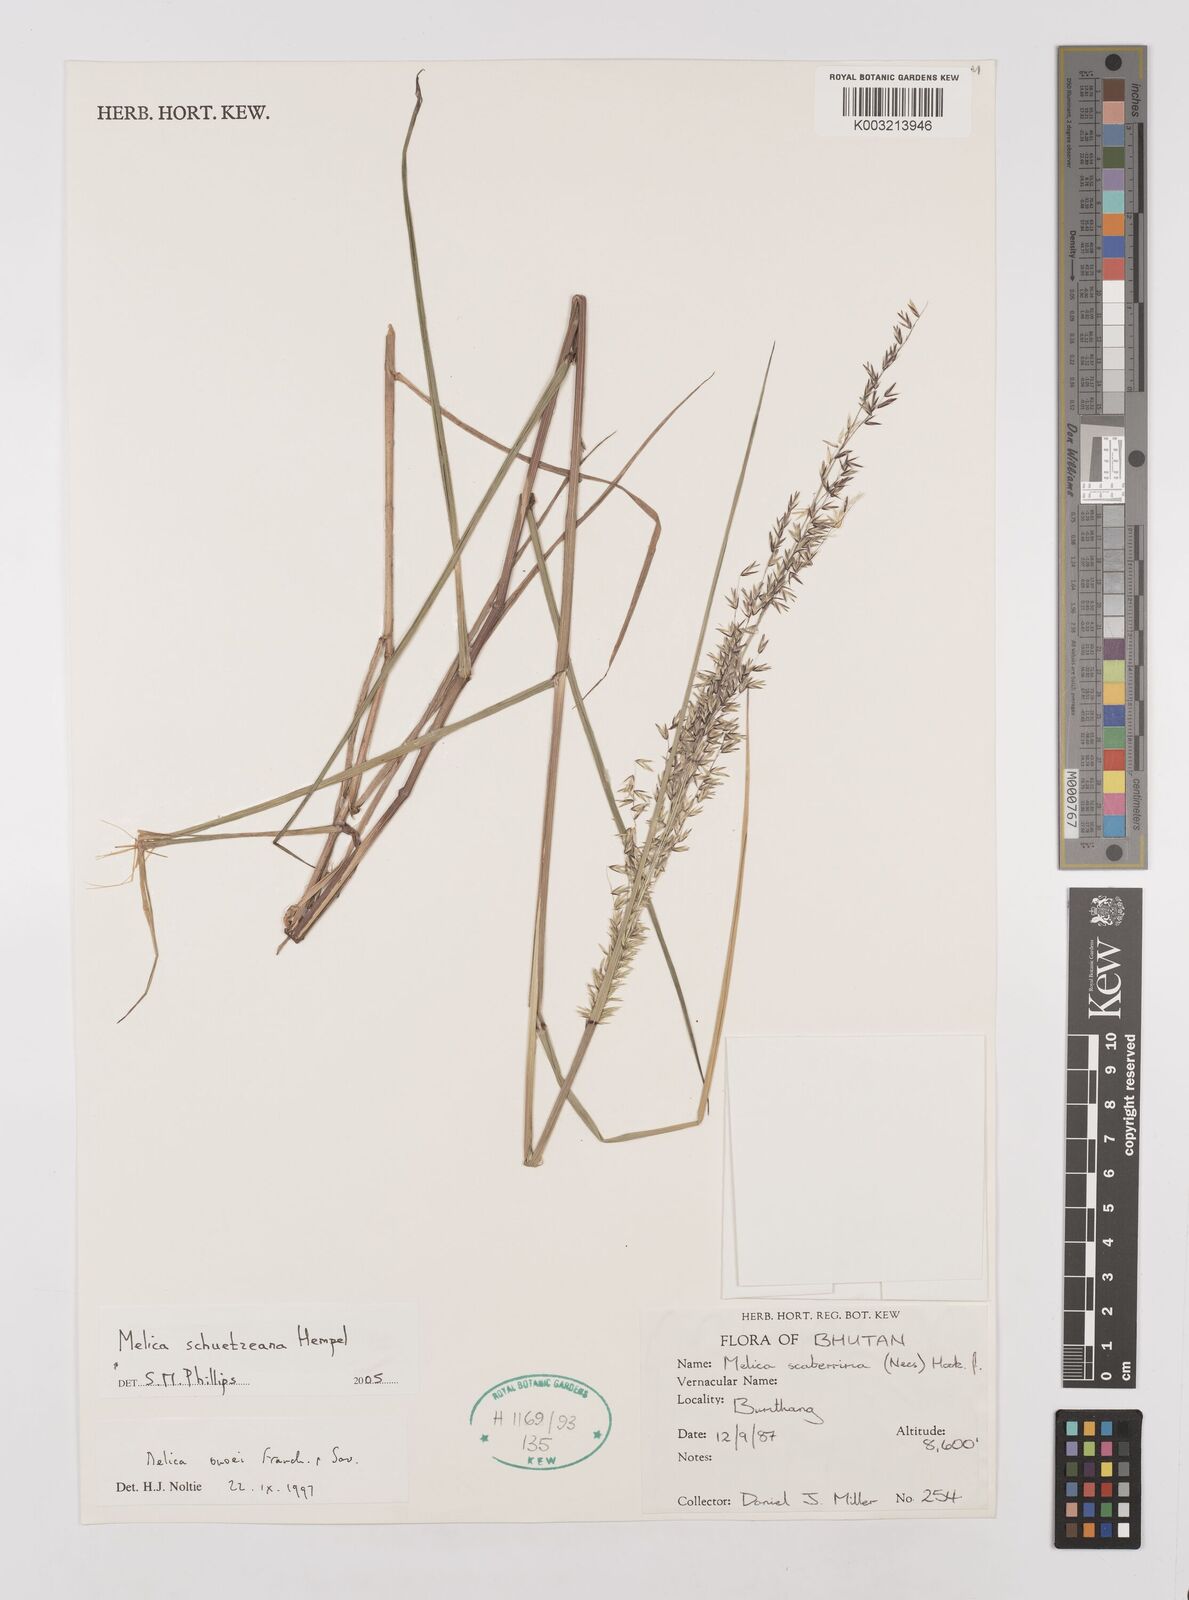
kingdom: Plantae
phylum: Tracheophyta
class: Liliopsida
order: Poales
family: Poaceae
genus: Melica
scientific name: Melica schuetzeana
